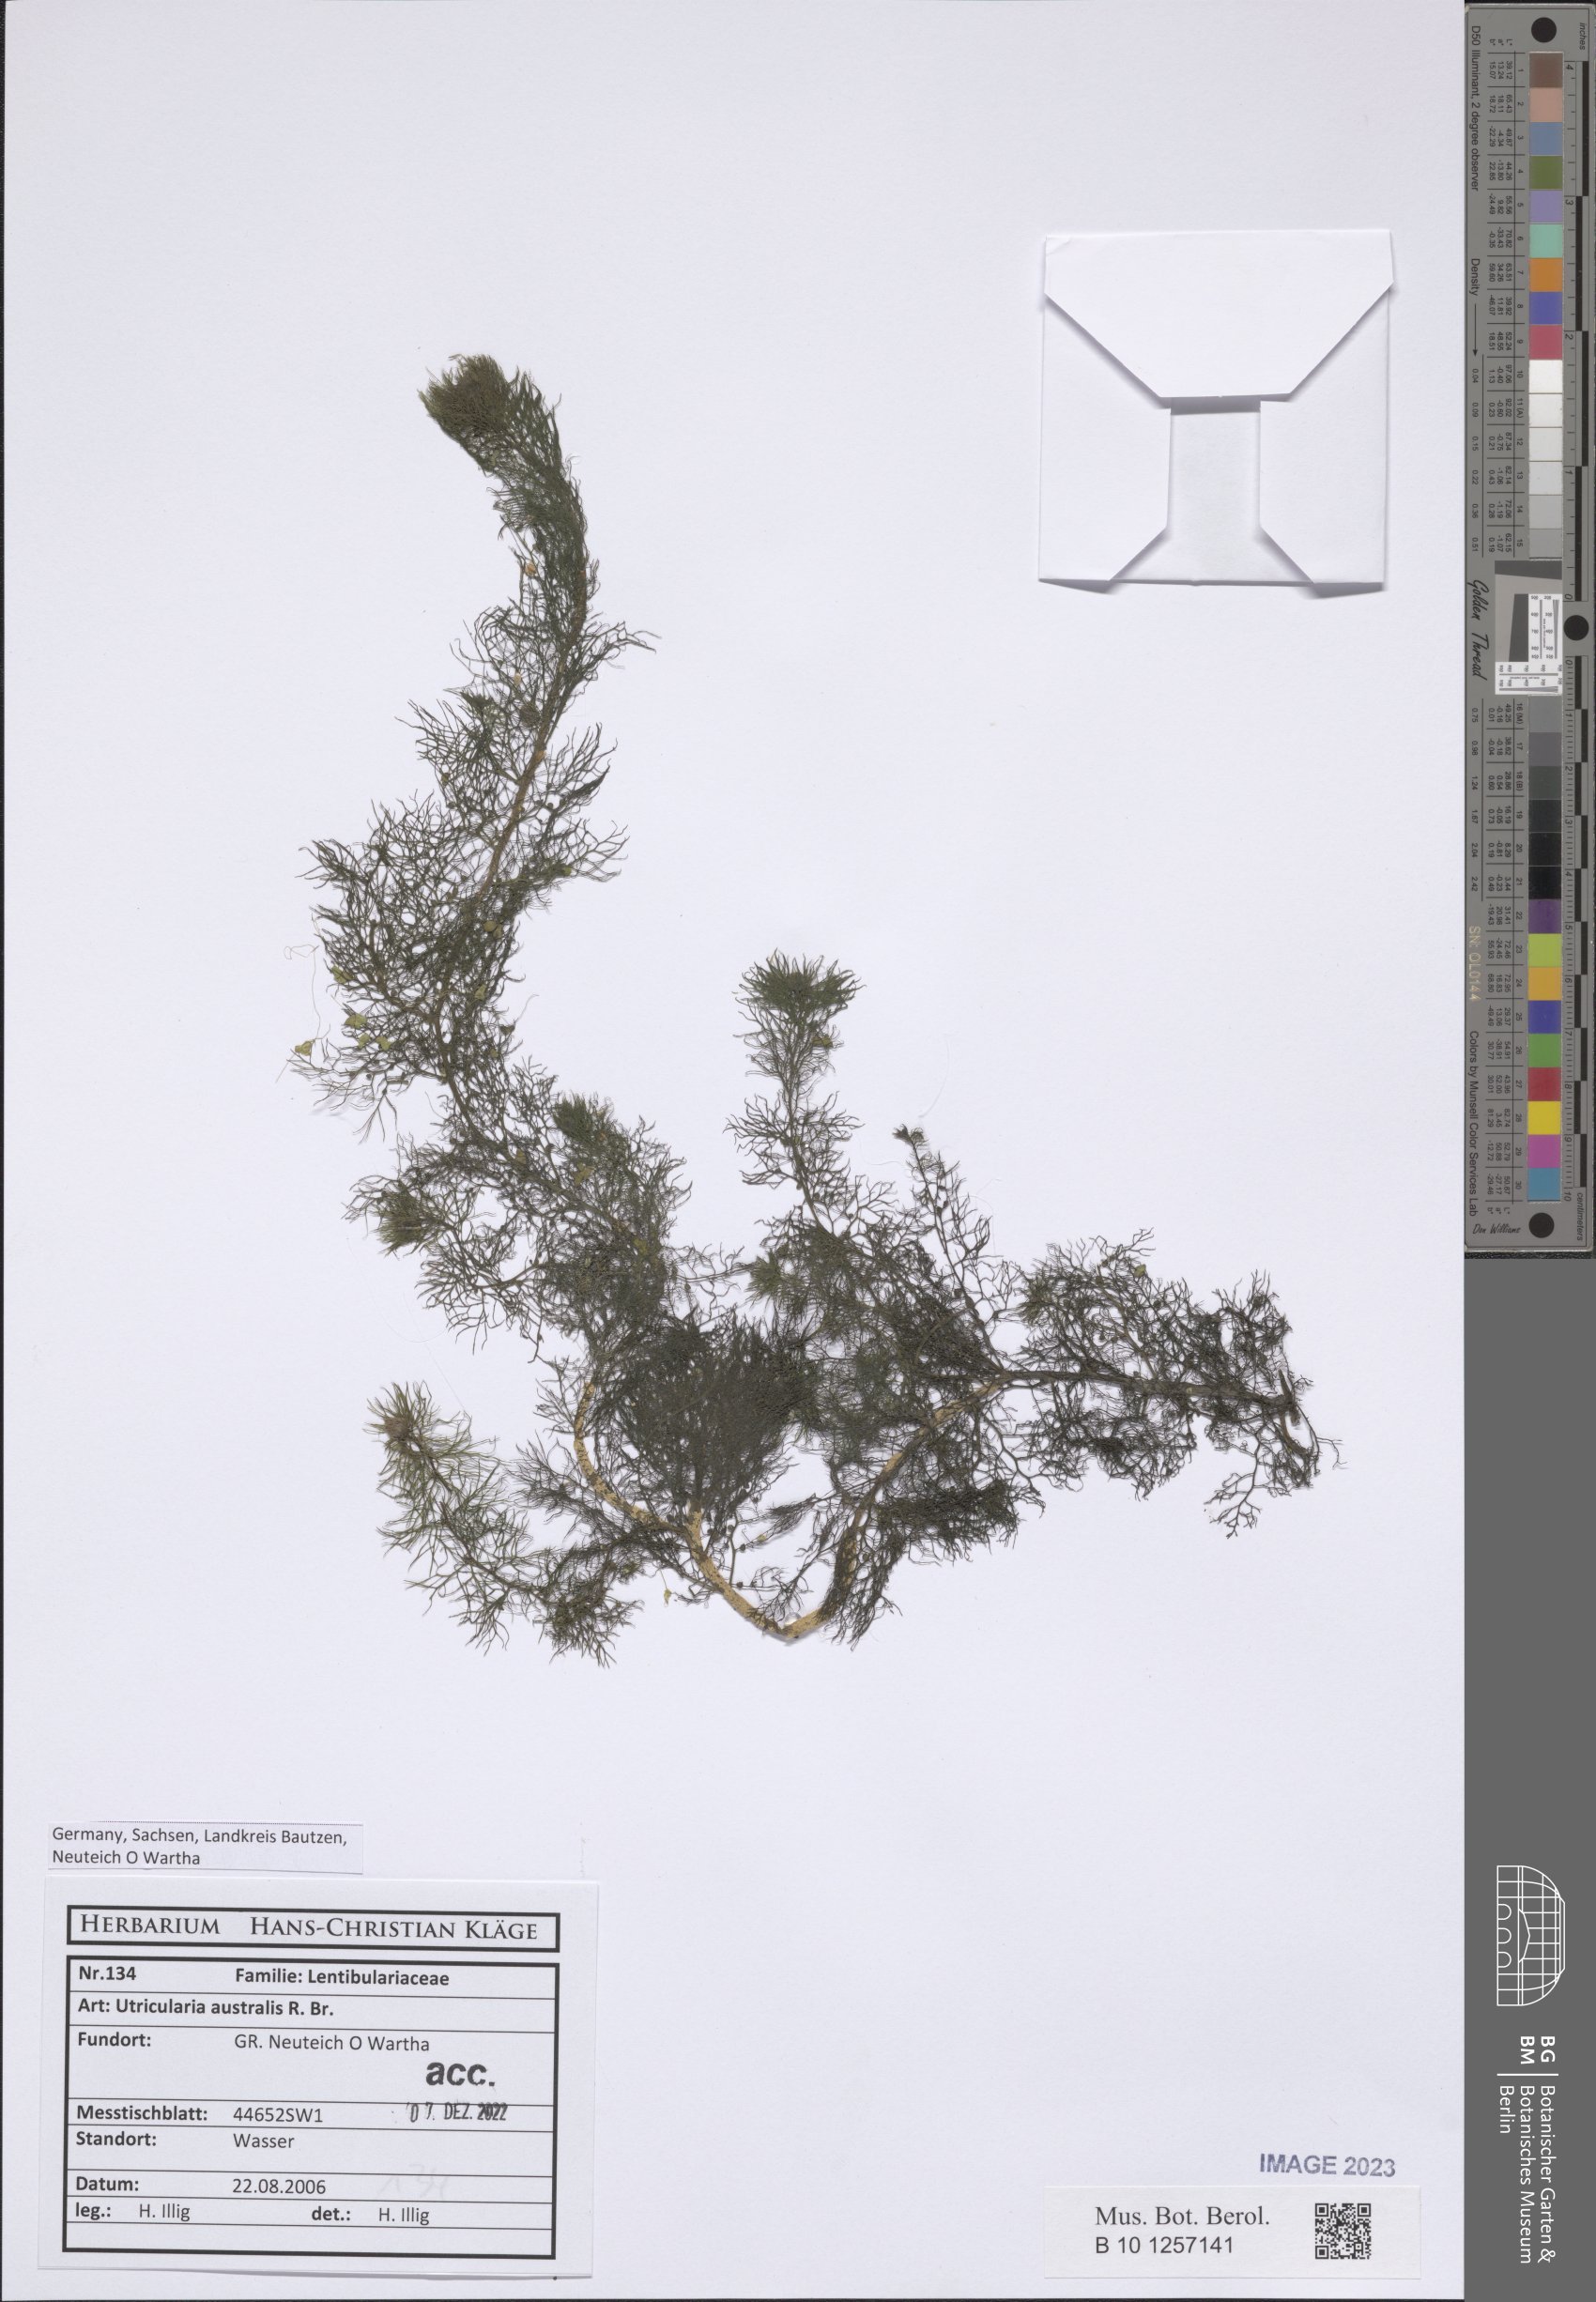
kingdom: Plantae
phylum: Tracheophyta
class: Magnoliopsida
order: Lamiales
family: Lentibulariaceae
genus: Utricularia
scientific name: Utricularia australis
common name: Bladderwort
